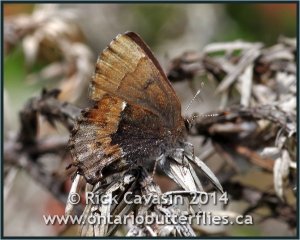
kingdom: Animalia
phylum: Arthropoda
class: Insecta
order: Lepidoptera
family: Lycaenidae
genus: Incisalia
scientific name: Incisalia henrici
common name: Henry's Elfin
